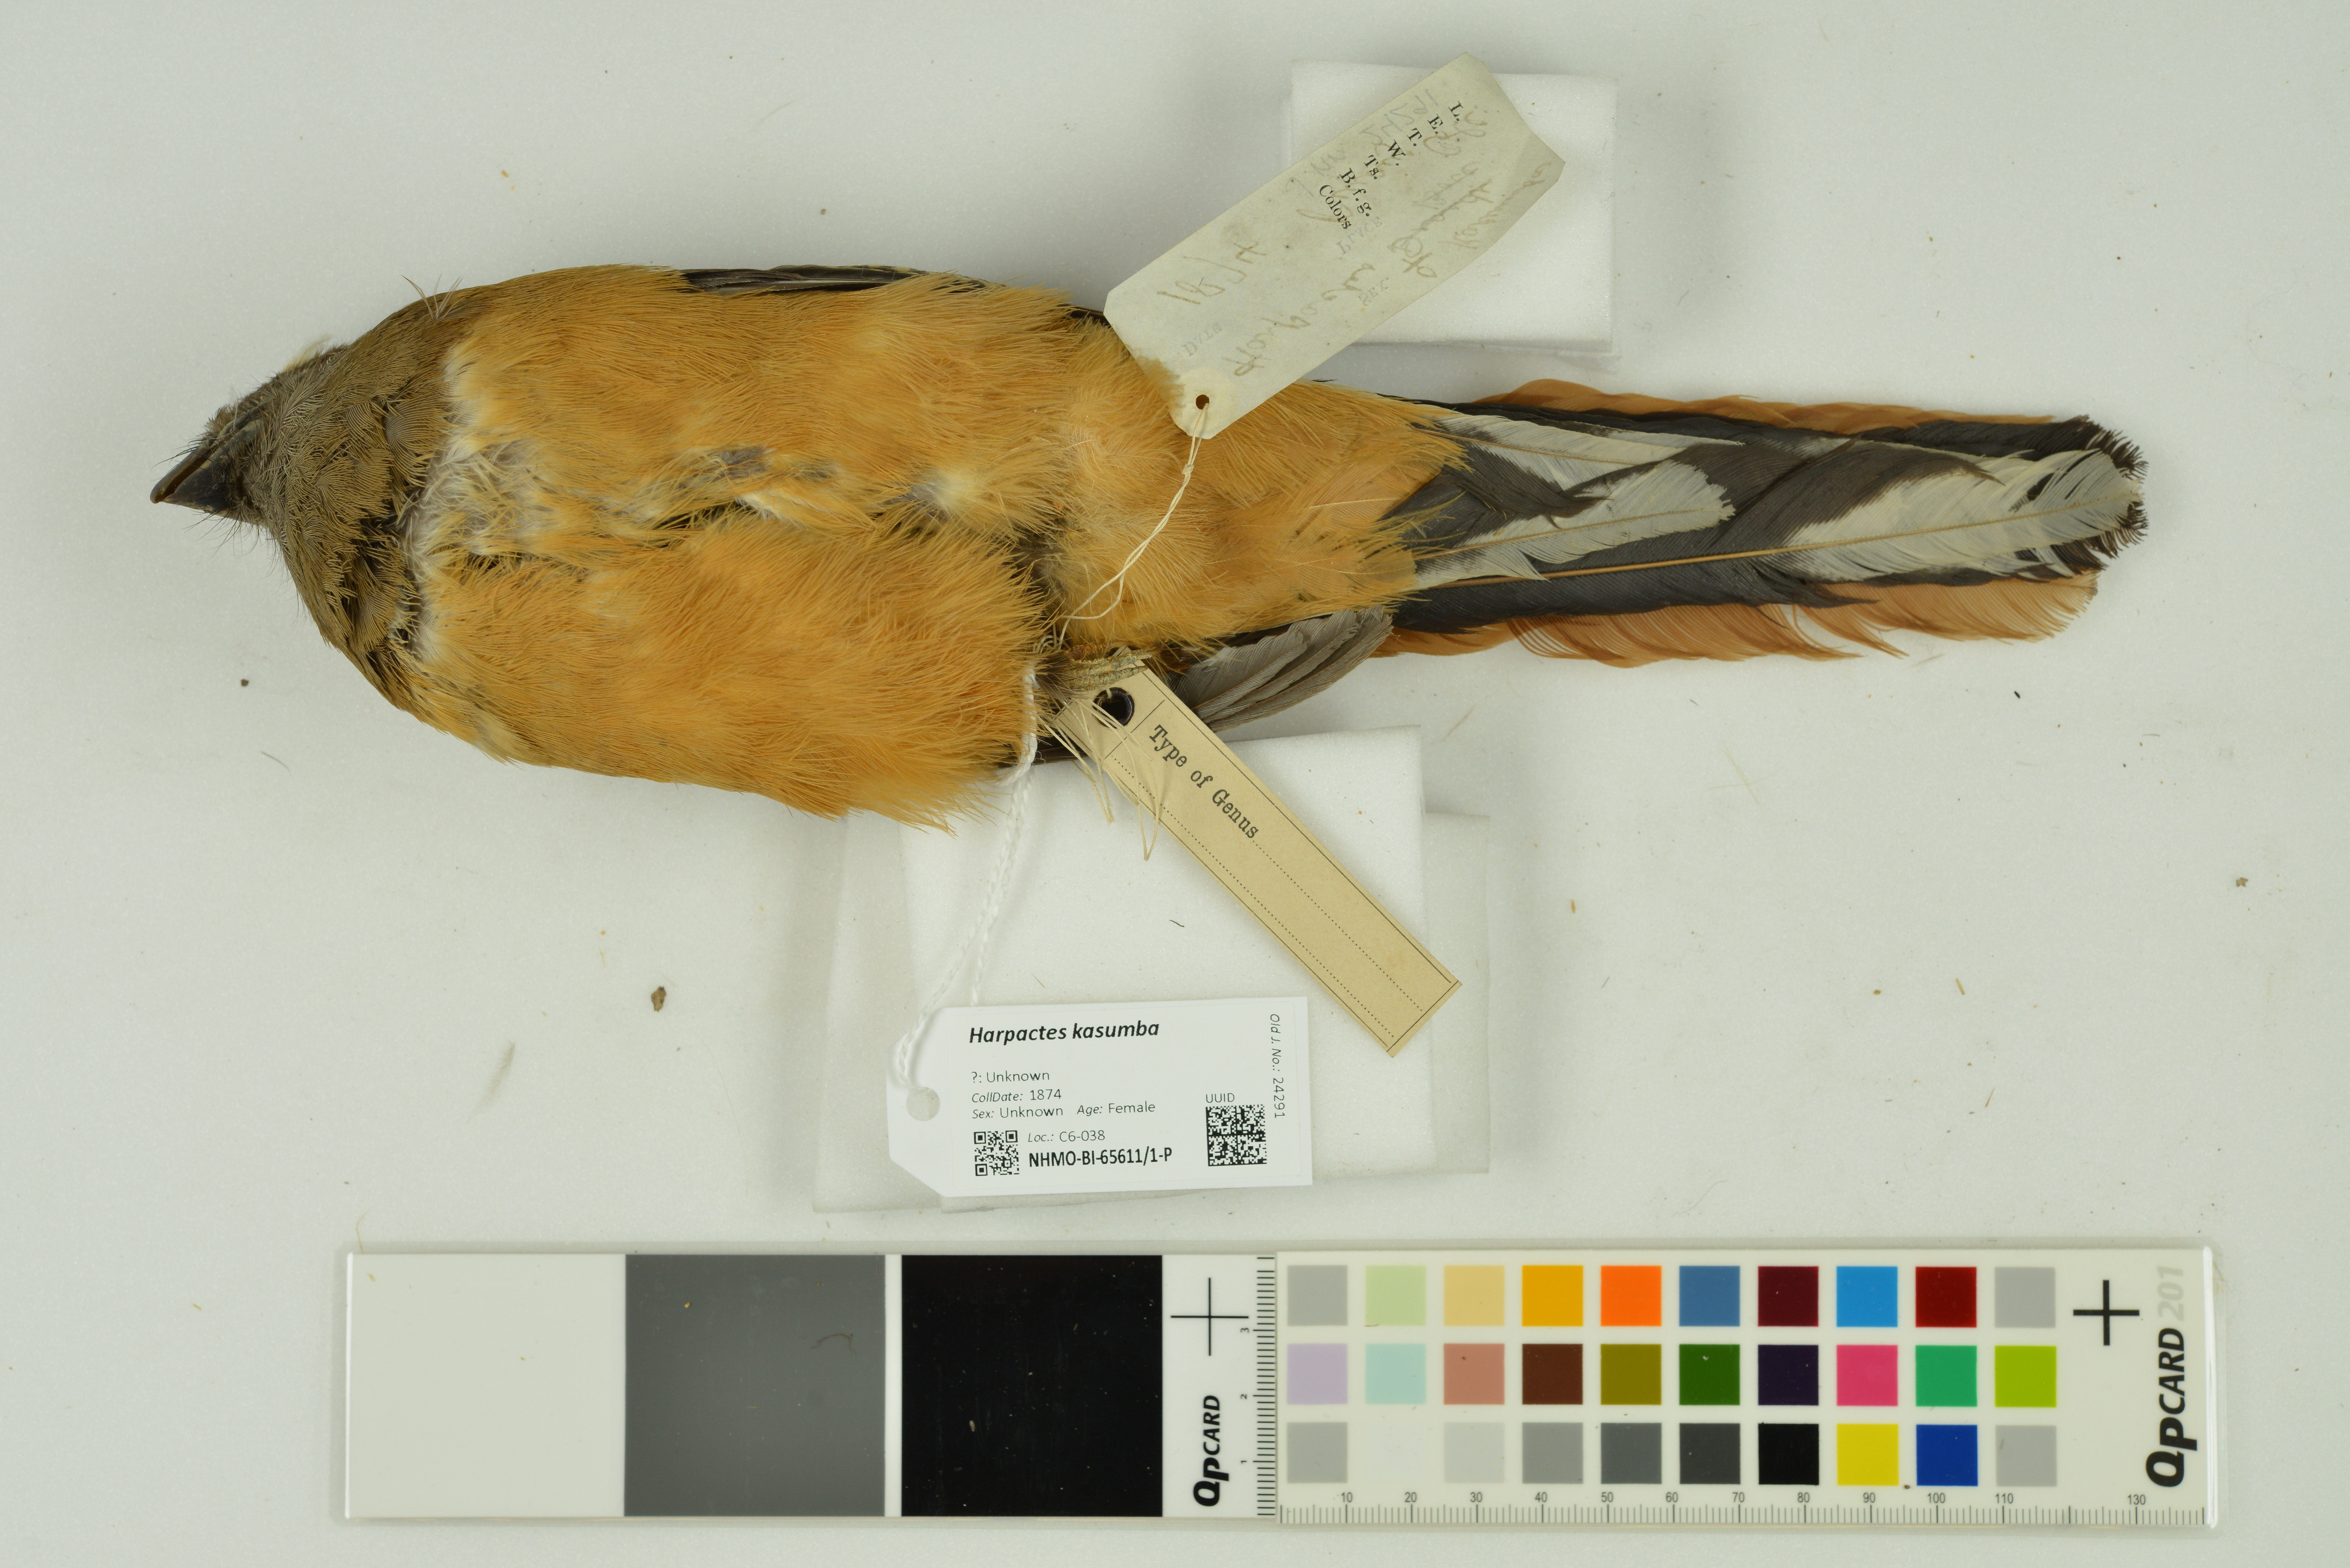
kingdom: Animalia
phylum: Chordata
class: Aves
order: Trogoniformes
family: Trogonidae
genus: Harpactes
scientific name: Harpactes kasumba
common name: Red-naped trogon
